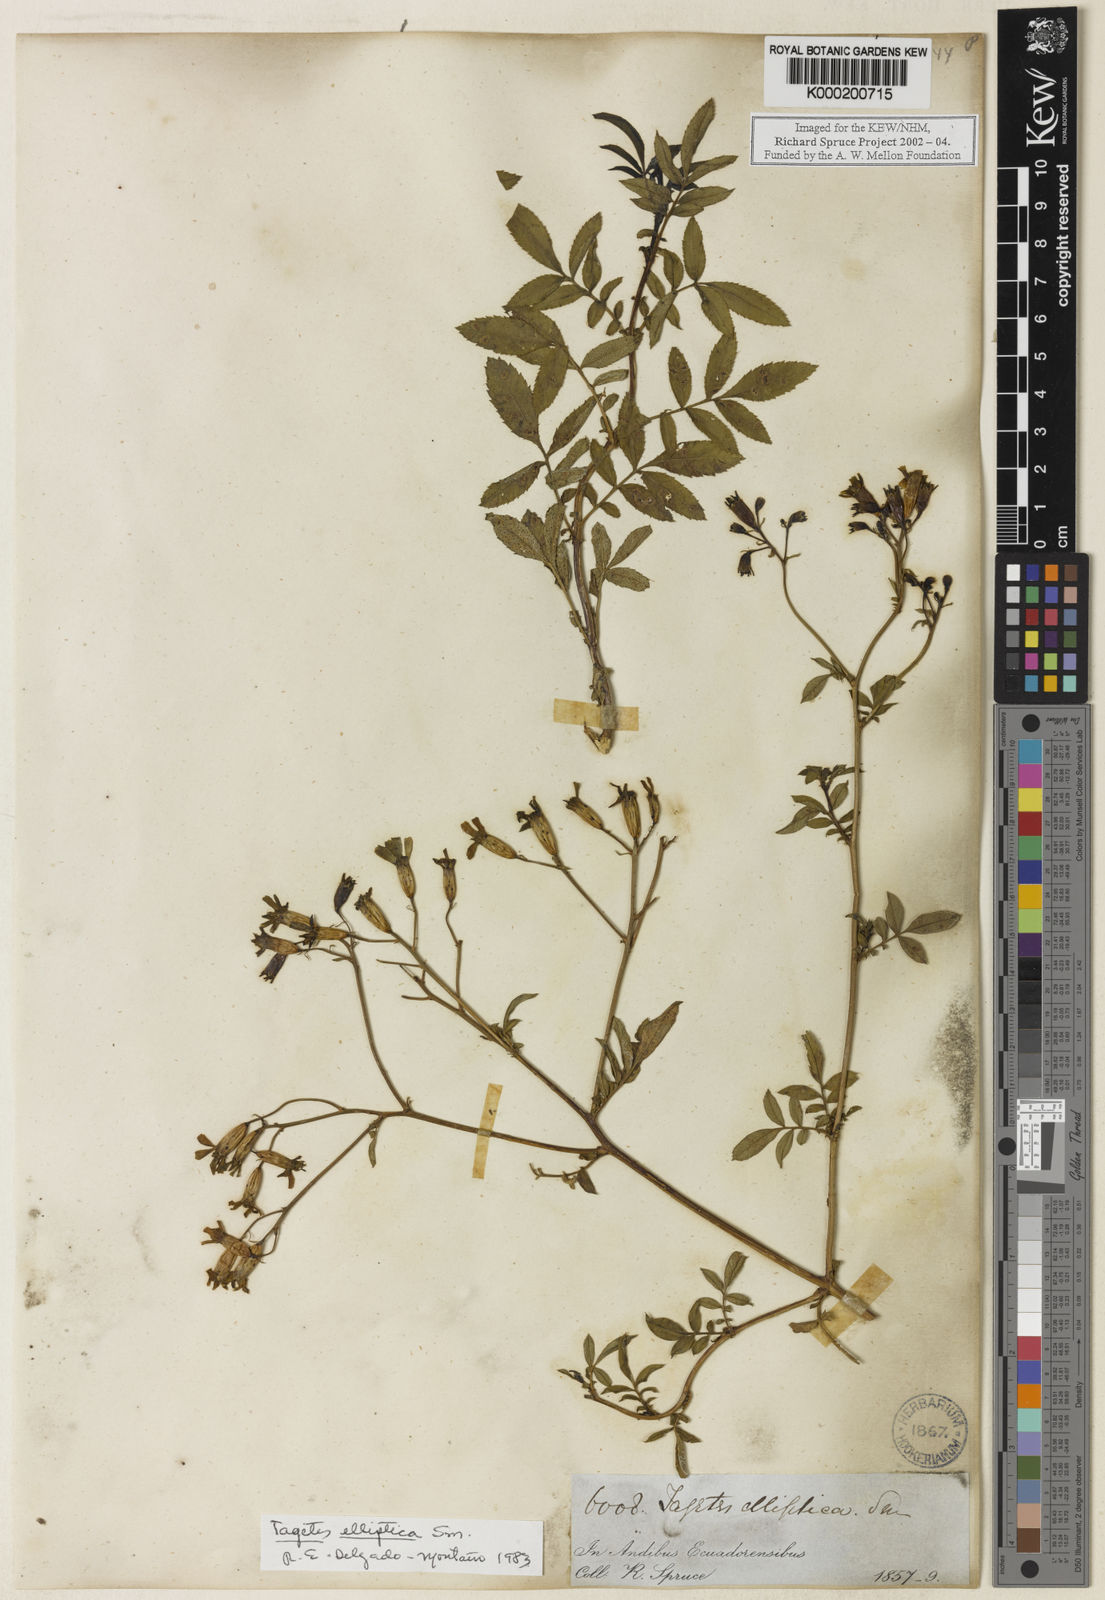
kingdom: Plantae
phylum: Tracheophyta
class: Magnoliopsida
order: Asterales
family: Asteraceae
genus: Tagetes
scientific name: Tagetes elliptica
